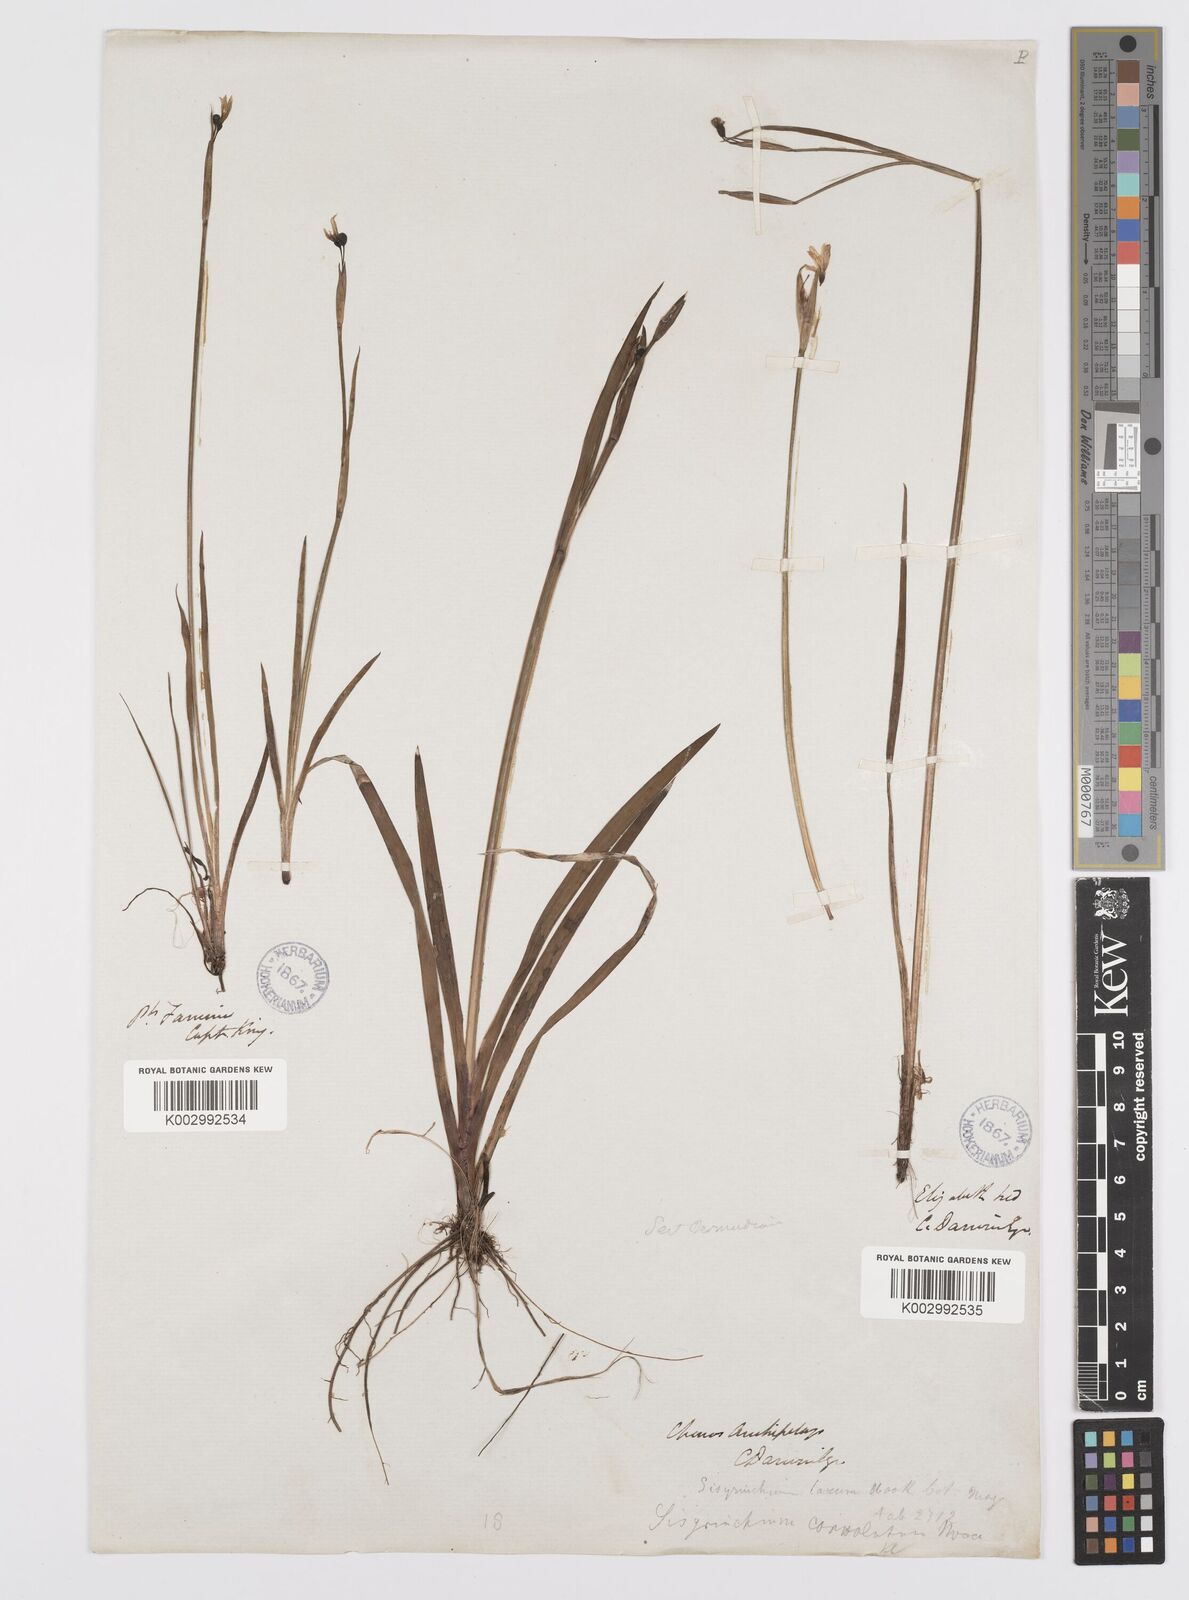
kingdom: Plantae
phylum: Tracheophyta
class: Liliopsida
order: Asparagales
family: Iridaceae
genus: Sisyrinchium
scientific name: Sisyrinchium micranthum
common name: Bermuda pigroot
